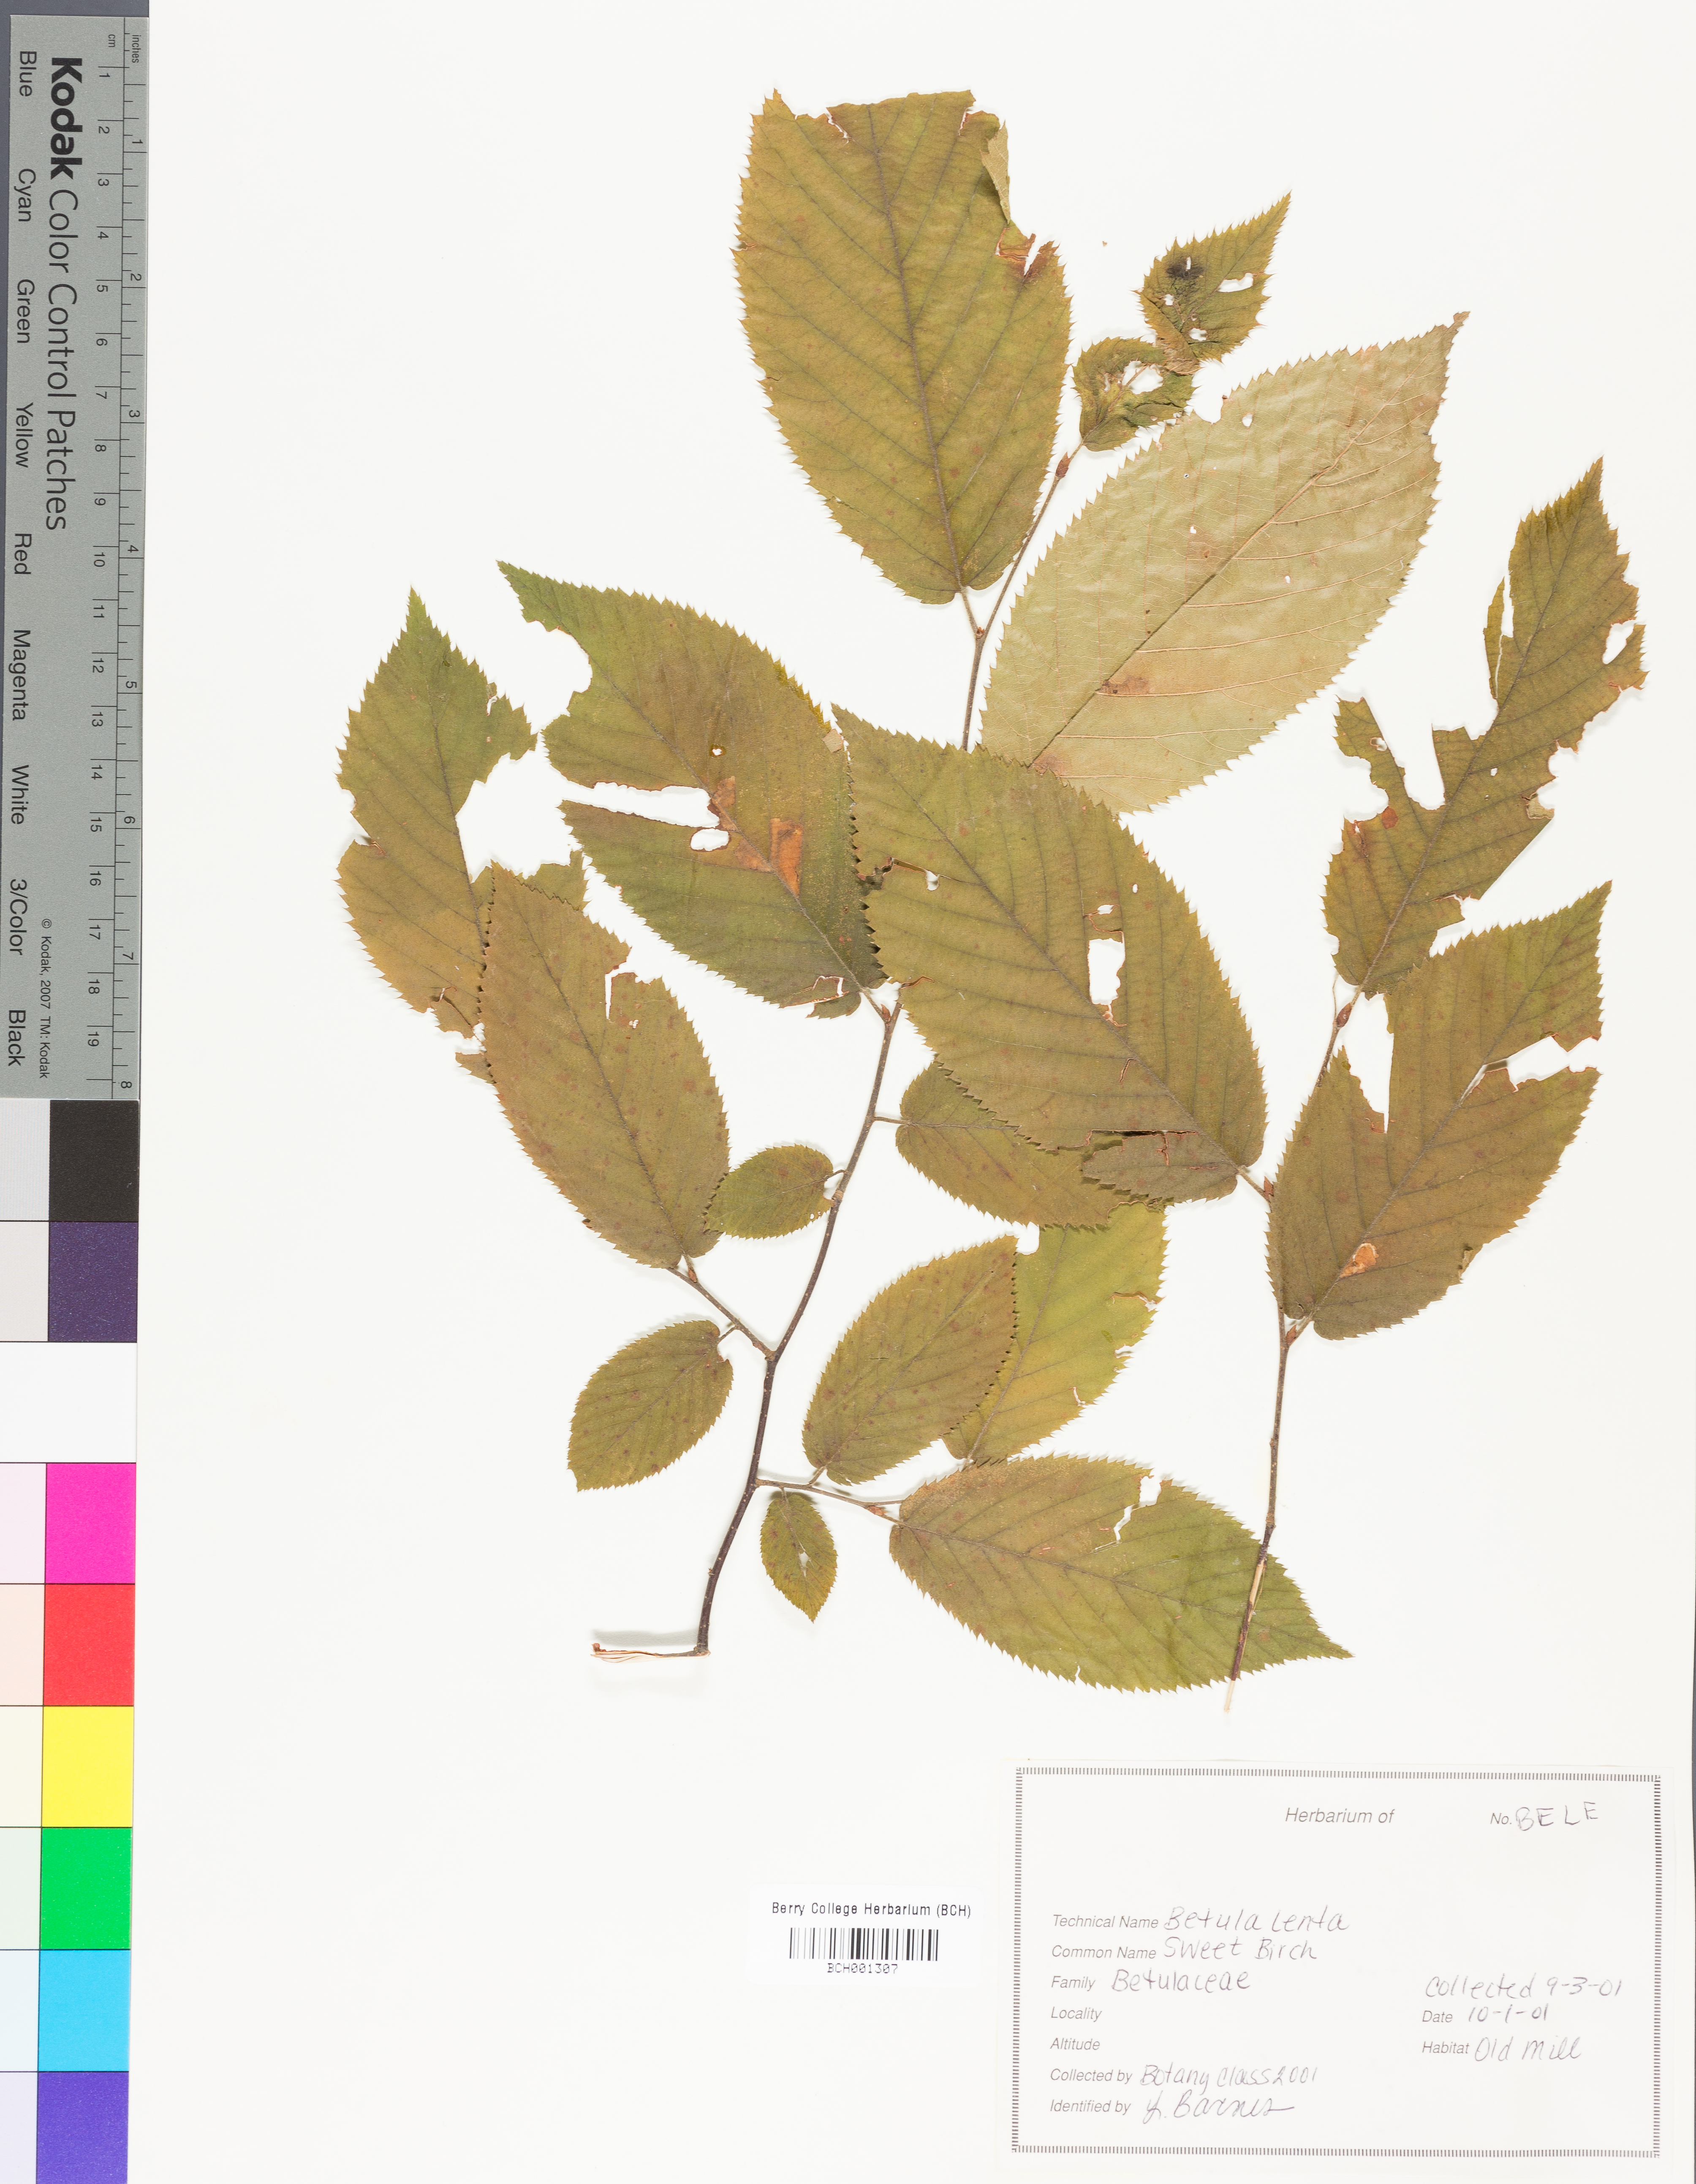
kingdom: Plantae
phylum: Tracheophyta
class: Magnoliopsida
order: Fagales
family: Betulaceae
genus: Betula
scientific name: Betula lenta
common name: Black birch
